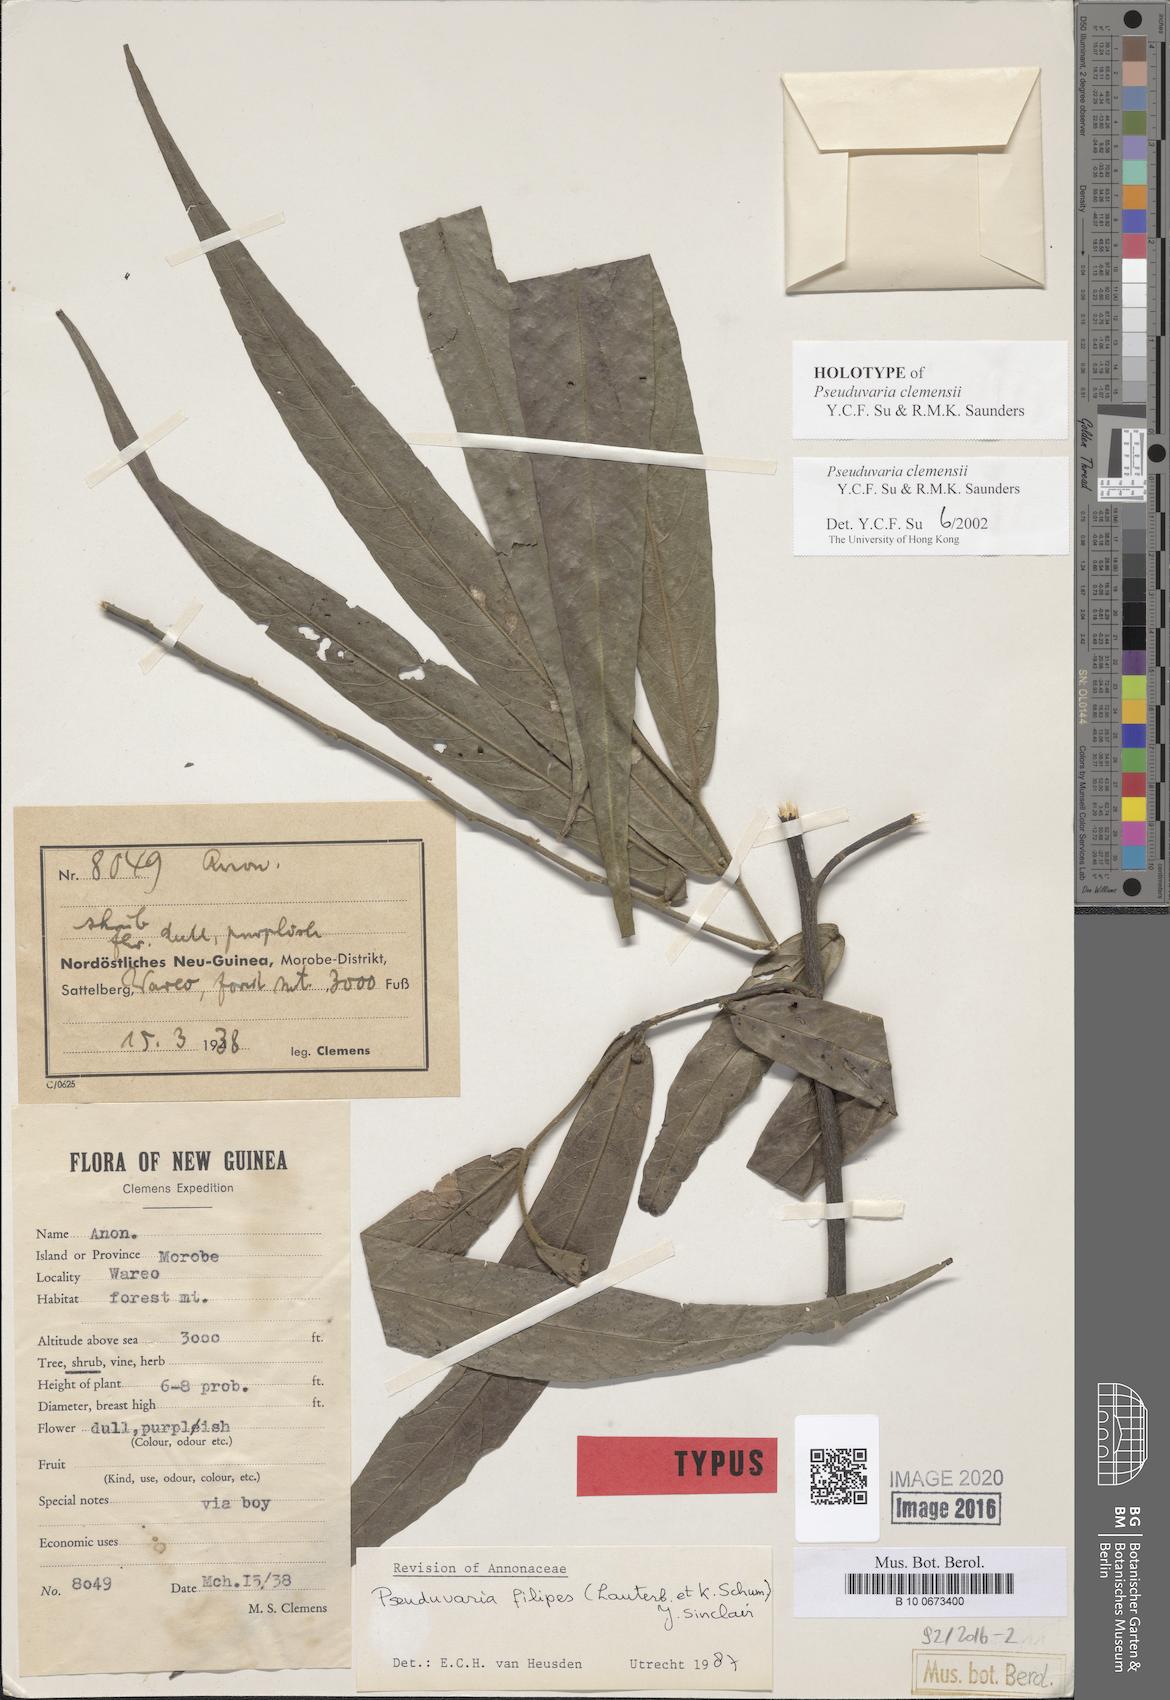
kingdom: Plantae
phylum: Tracheophyta
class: Magnoliopsida
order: Magnoliales
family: Annonaceae
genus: Pseuduvaria
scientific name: Pseuduvaria clemensiae
